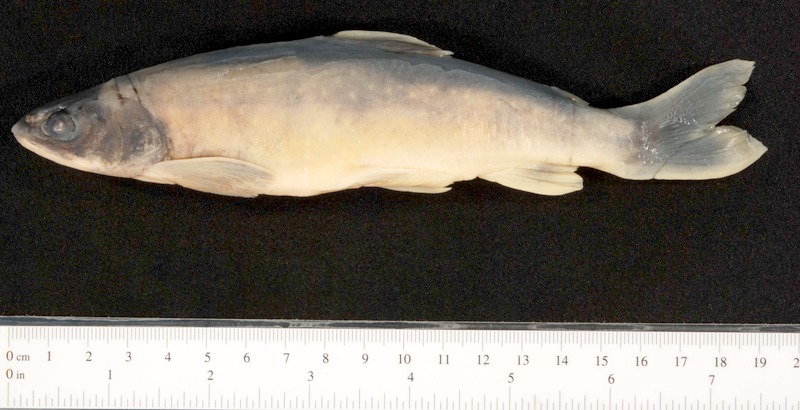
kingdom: Animalia
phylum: Chordata
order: Salmoniformes
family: Salmonidae
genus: Salvelinus
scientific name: Salvelinus
